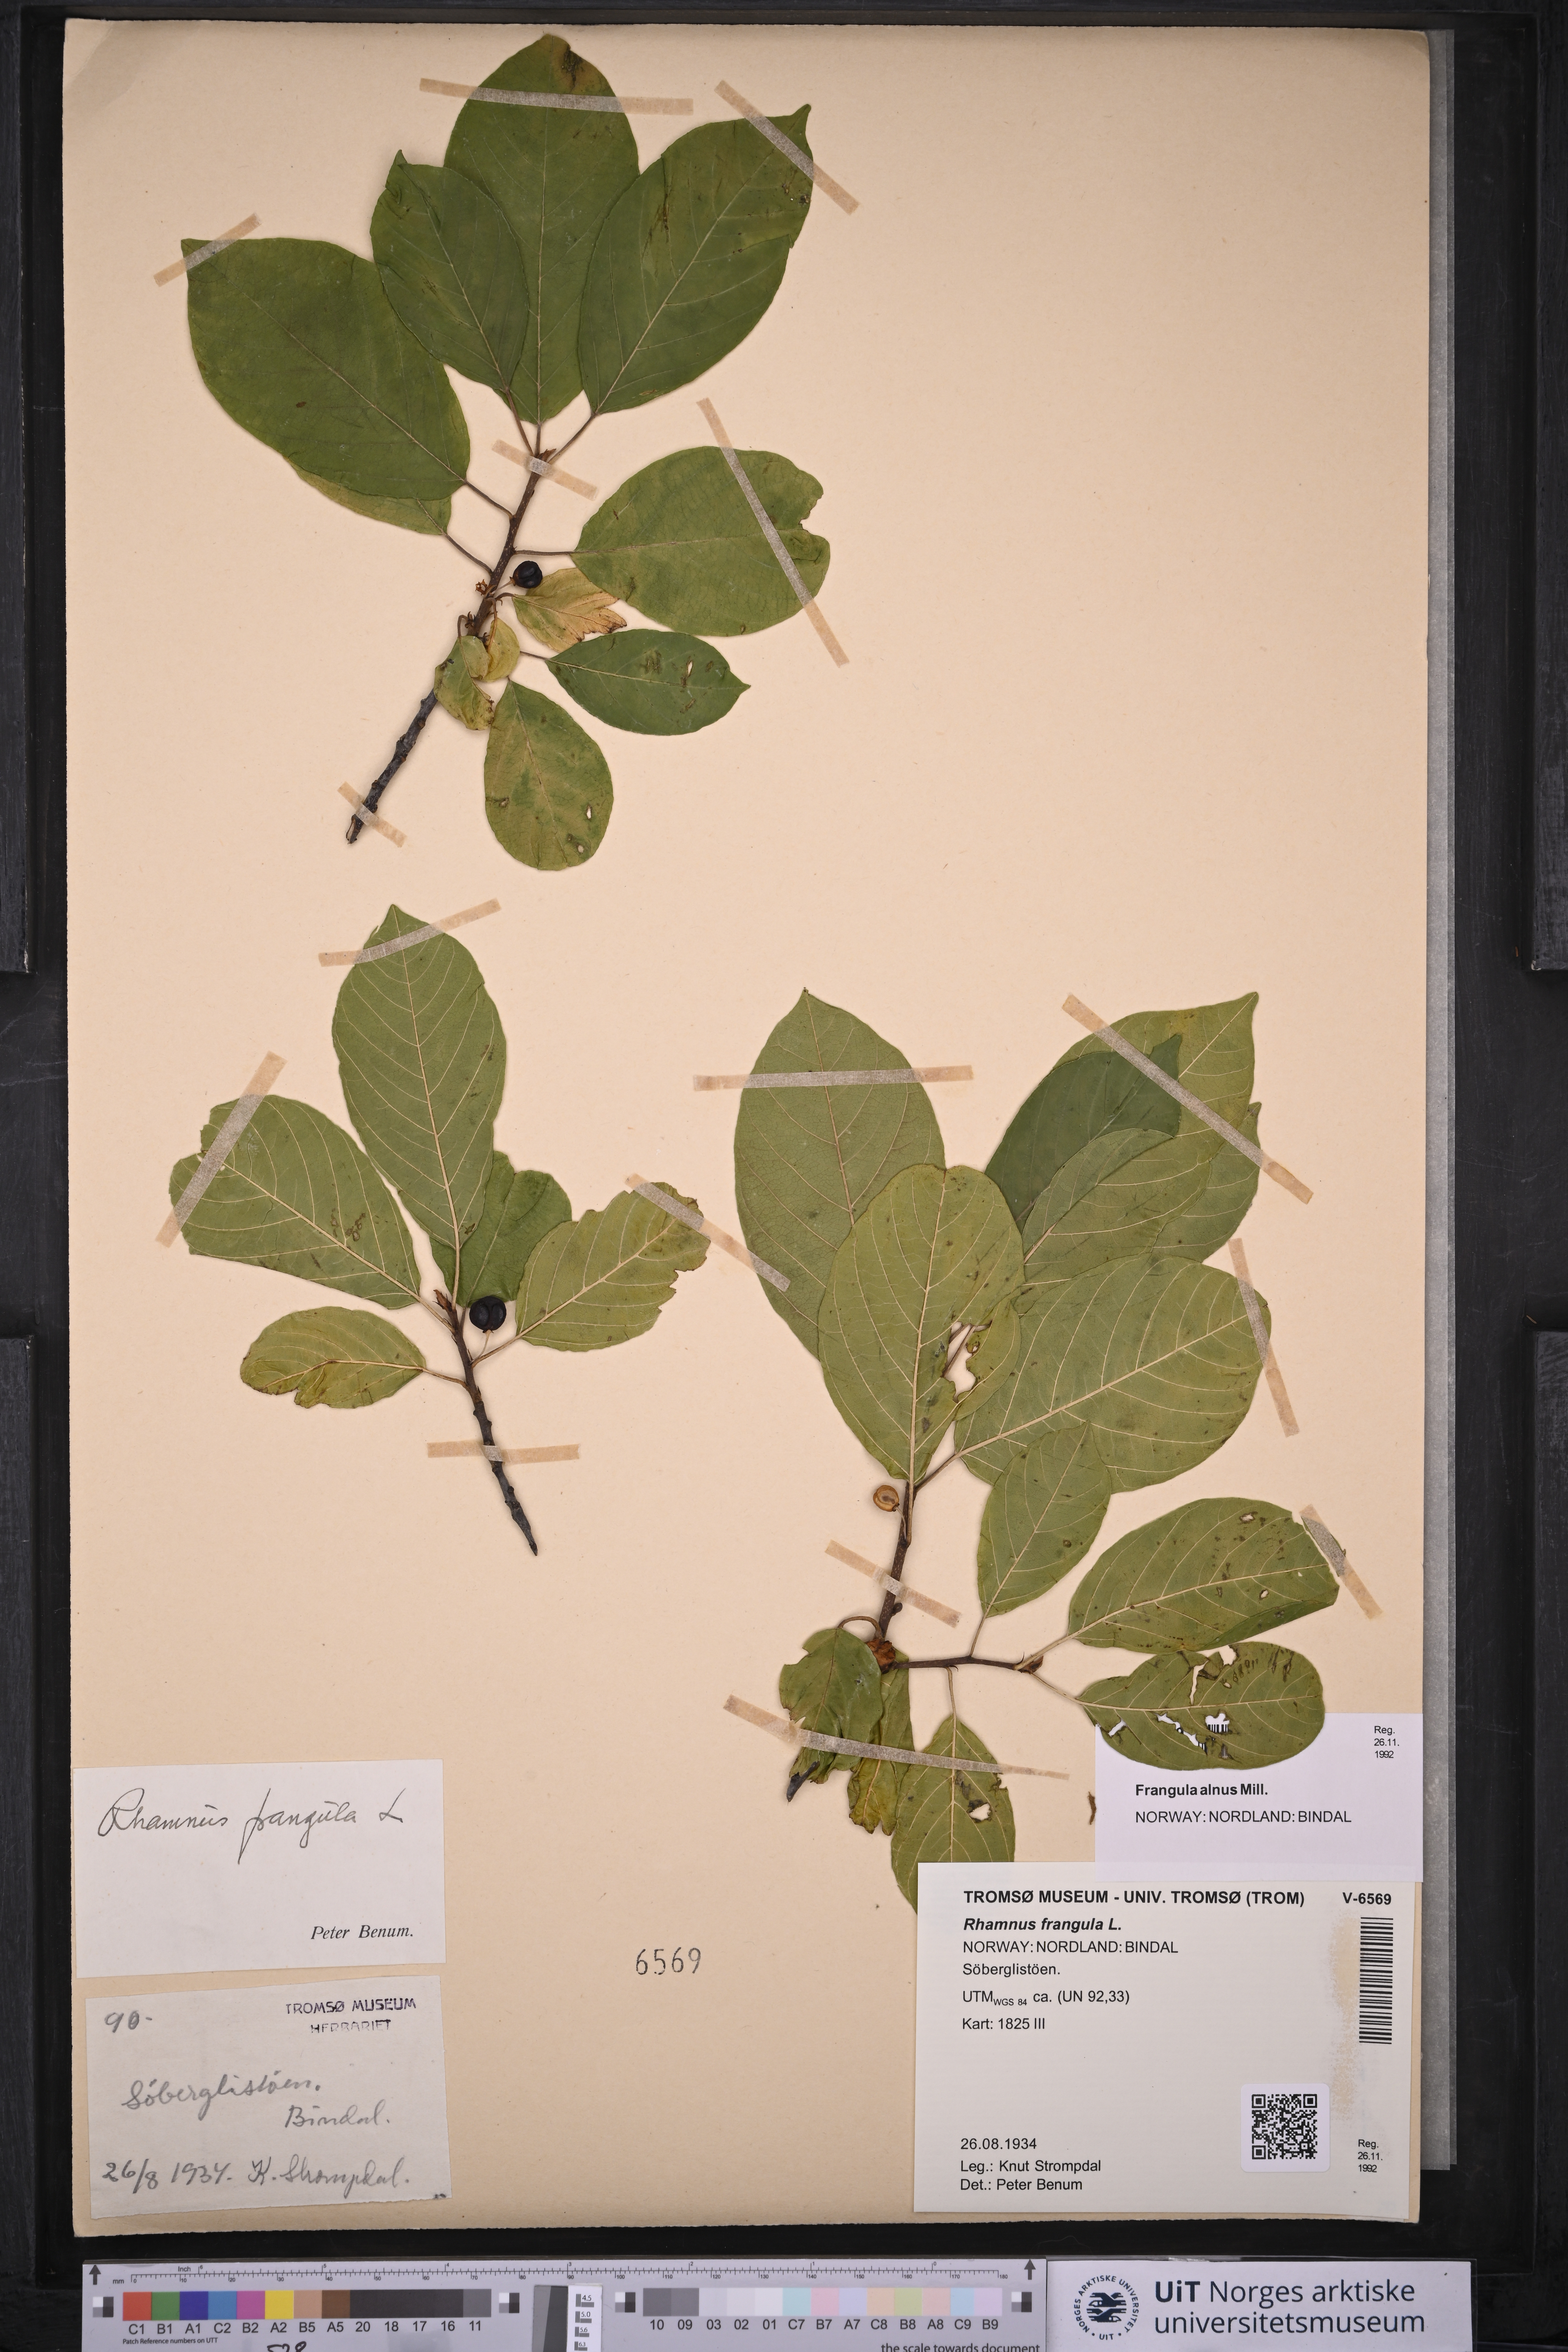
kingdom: Plantae
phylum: Tracheophyta
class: Magnoliopsida
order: Rosales
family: Rhamnaceae
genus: Frangula
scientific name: Frangula alnus
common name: Alder buckthorn
